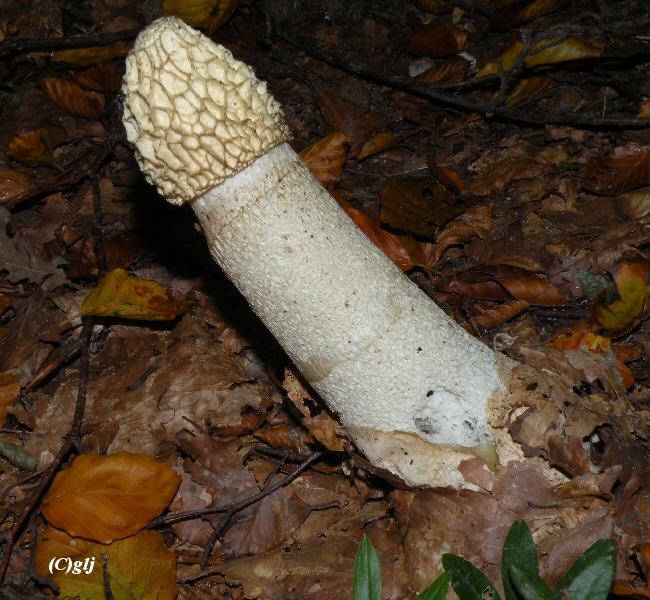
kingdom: Fungi
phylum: Basidiomycota
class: Agaricomycetes
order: Phallales
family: Phallaceae
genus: Phallus
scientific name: Phallus impudicus
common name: almindelig stinksvamp
